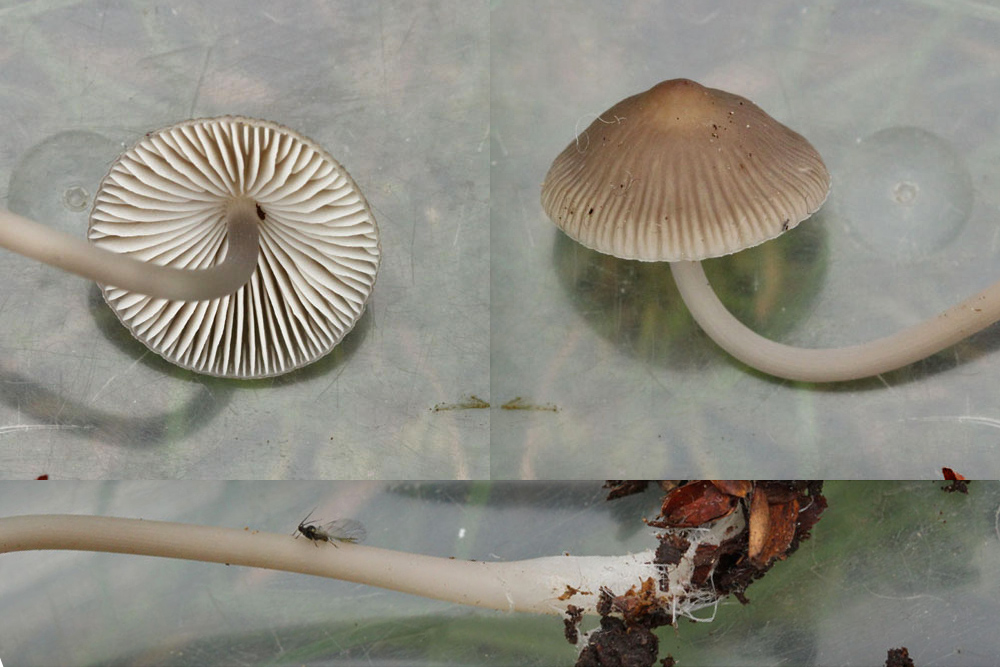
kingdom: Fungi
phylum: Basidiomycota
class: Agaricomycetes
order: Agaricales
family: Mycenaceae
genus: Mycena
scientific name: Mycena vitilis
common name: blankstokket huesvamp
